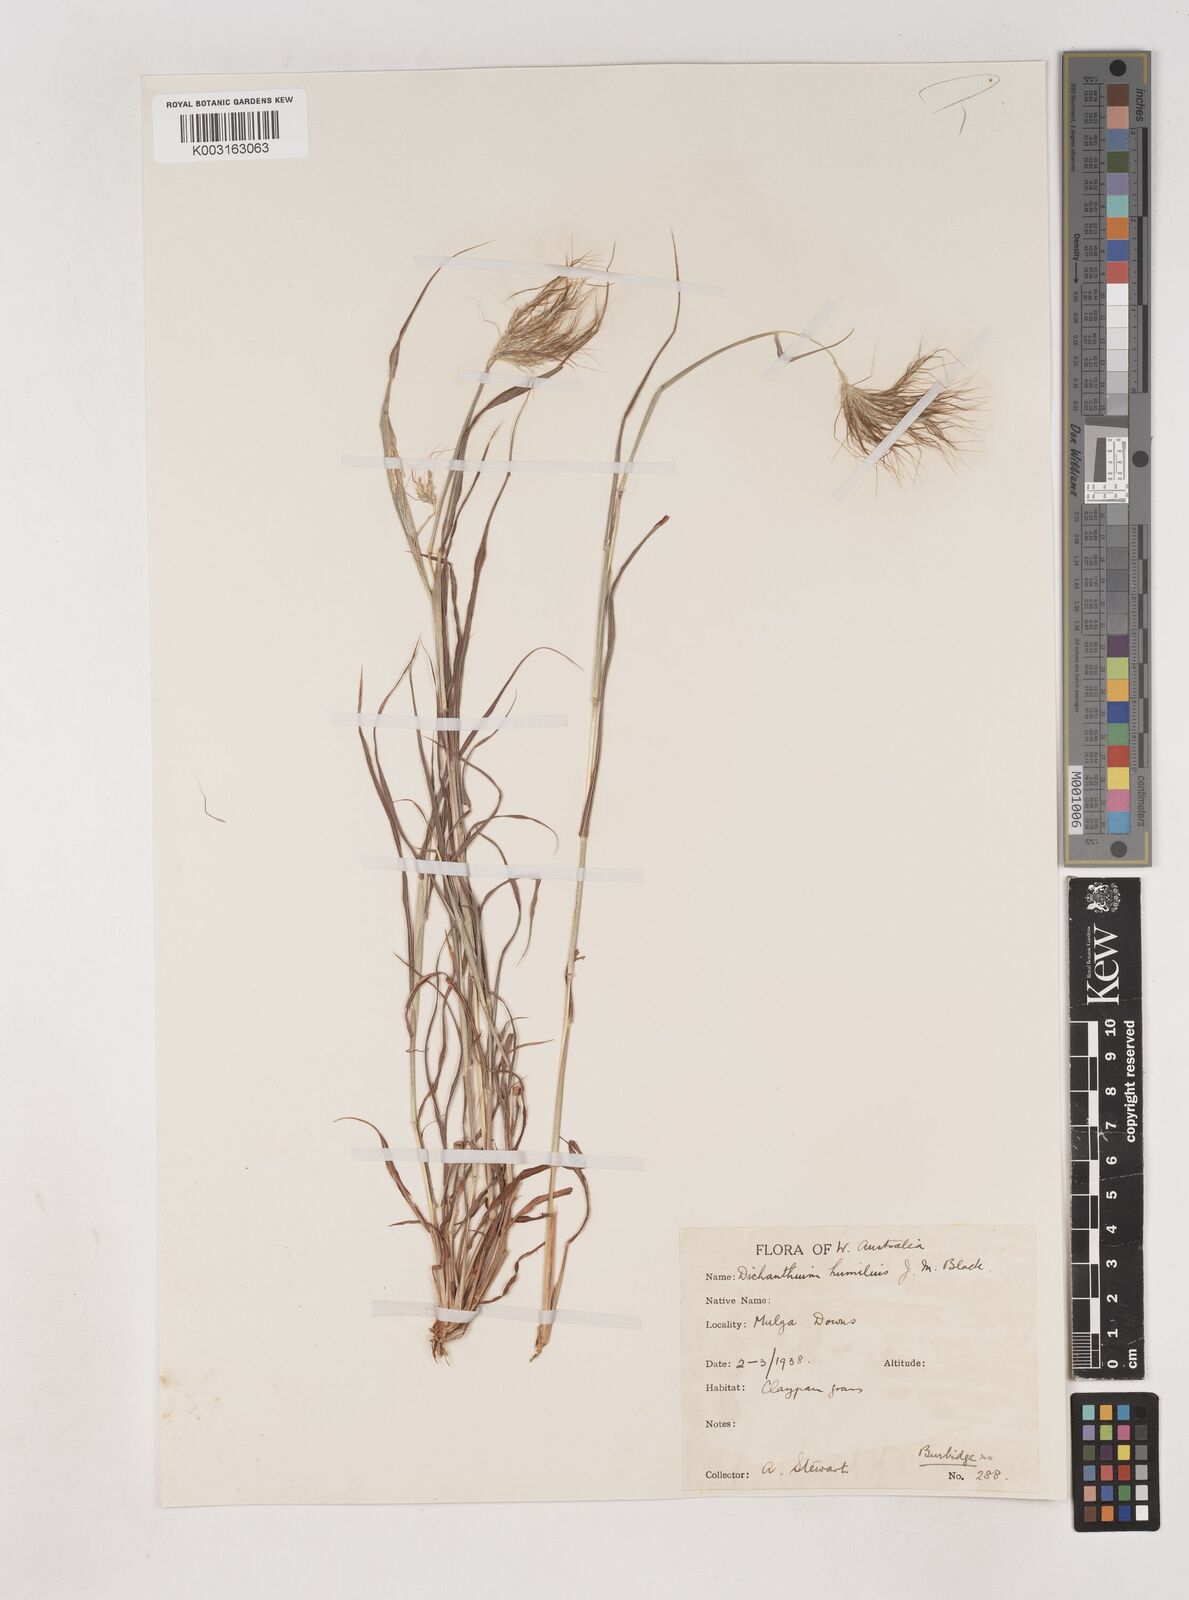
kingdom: Plantae
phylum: Tracheophyta
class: Liliopsida
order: Poales
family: Poaceae
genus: Dichanthium
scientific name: Dichanthium sericeum
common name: Silky bluestem
